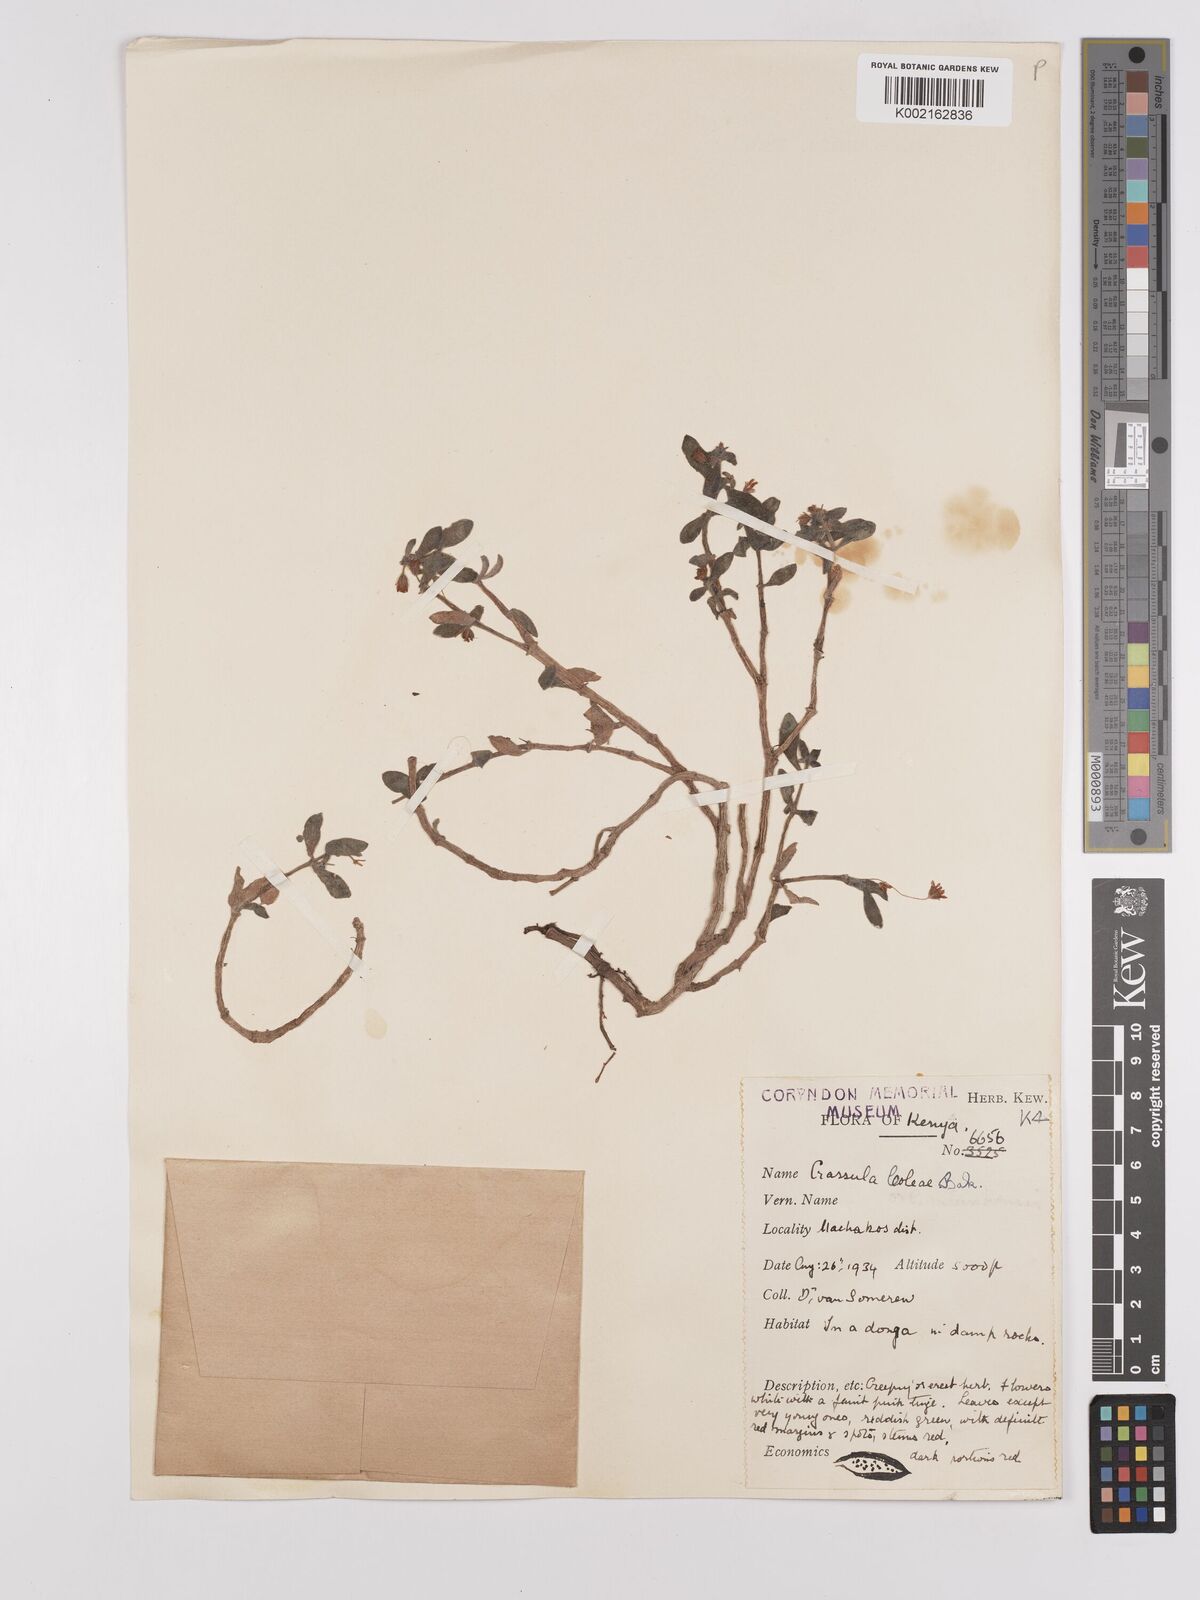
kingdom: Plantae
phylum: Tracheophyta
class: Magnoliopsida
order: Saxifragales
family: Crassulaceae
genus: Crassula
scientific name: Crassula volkensii
